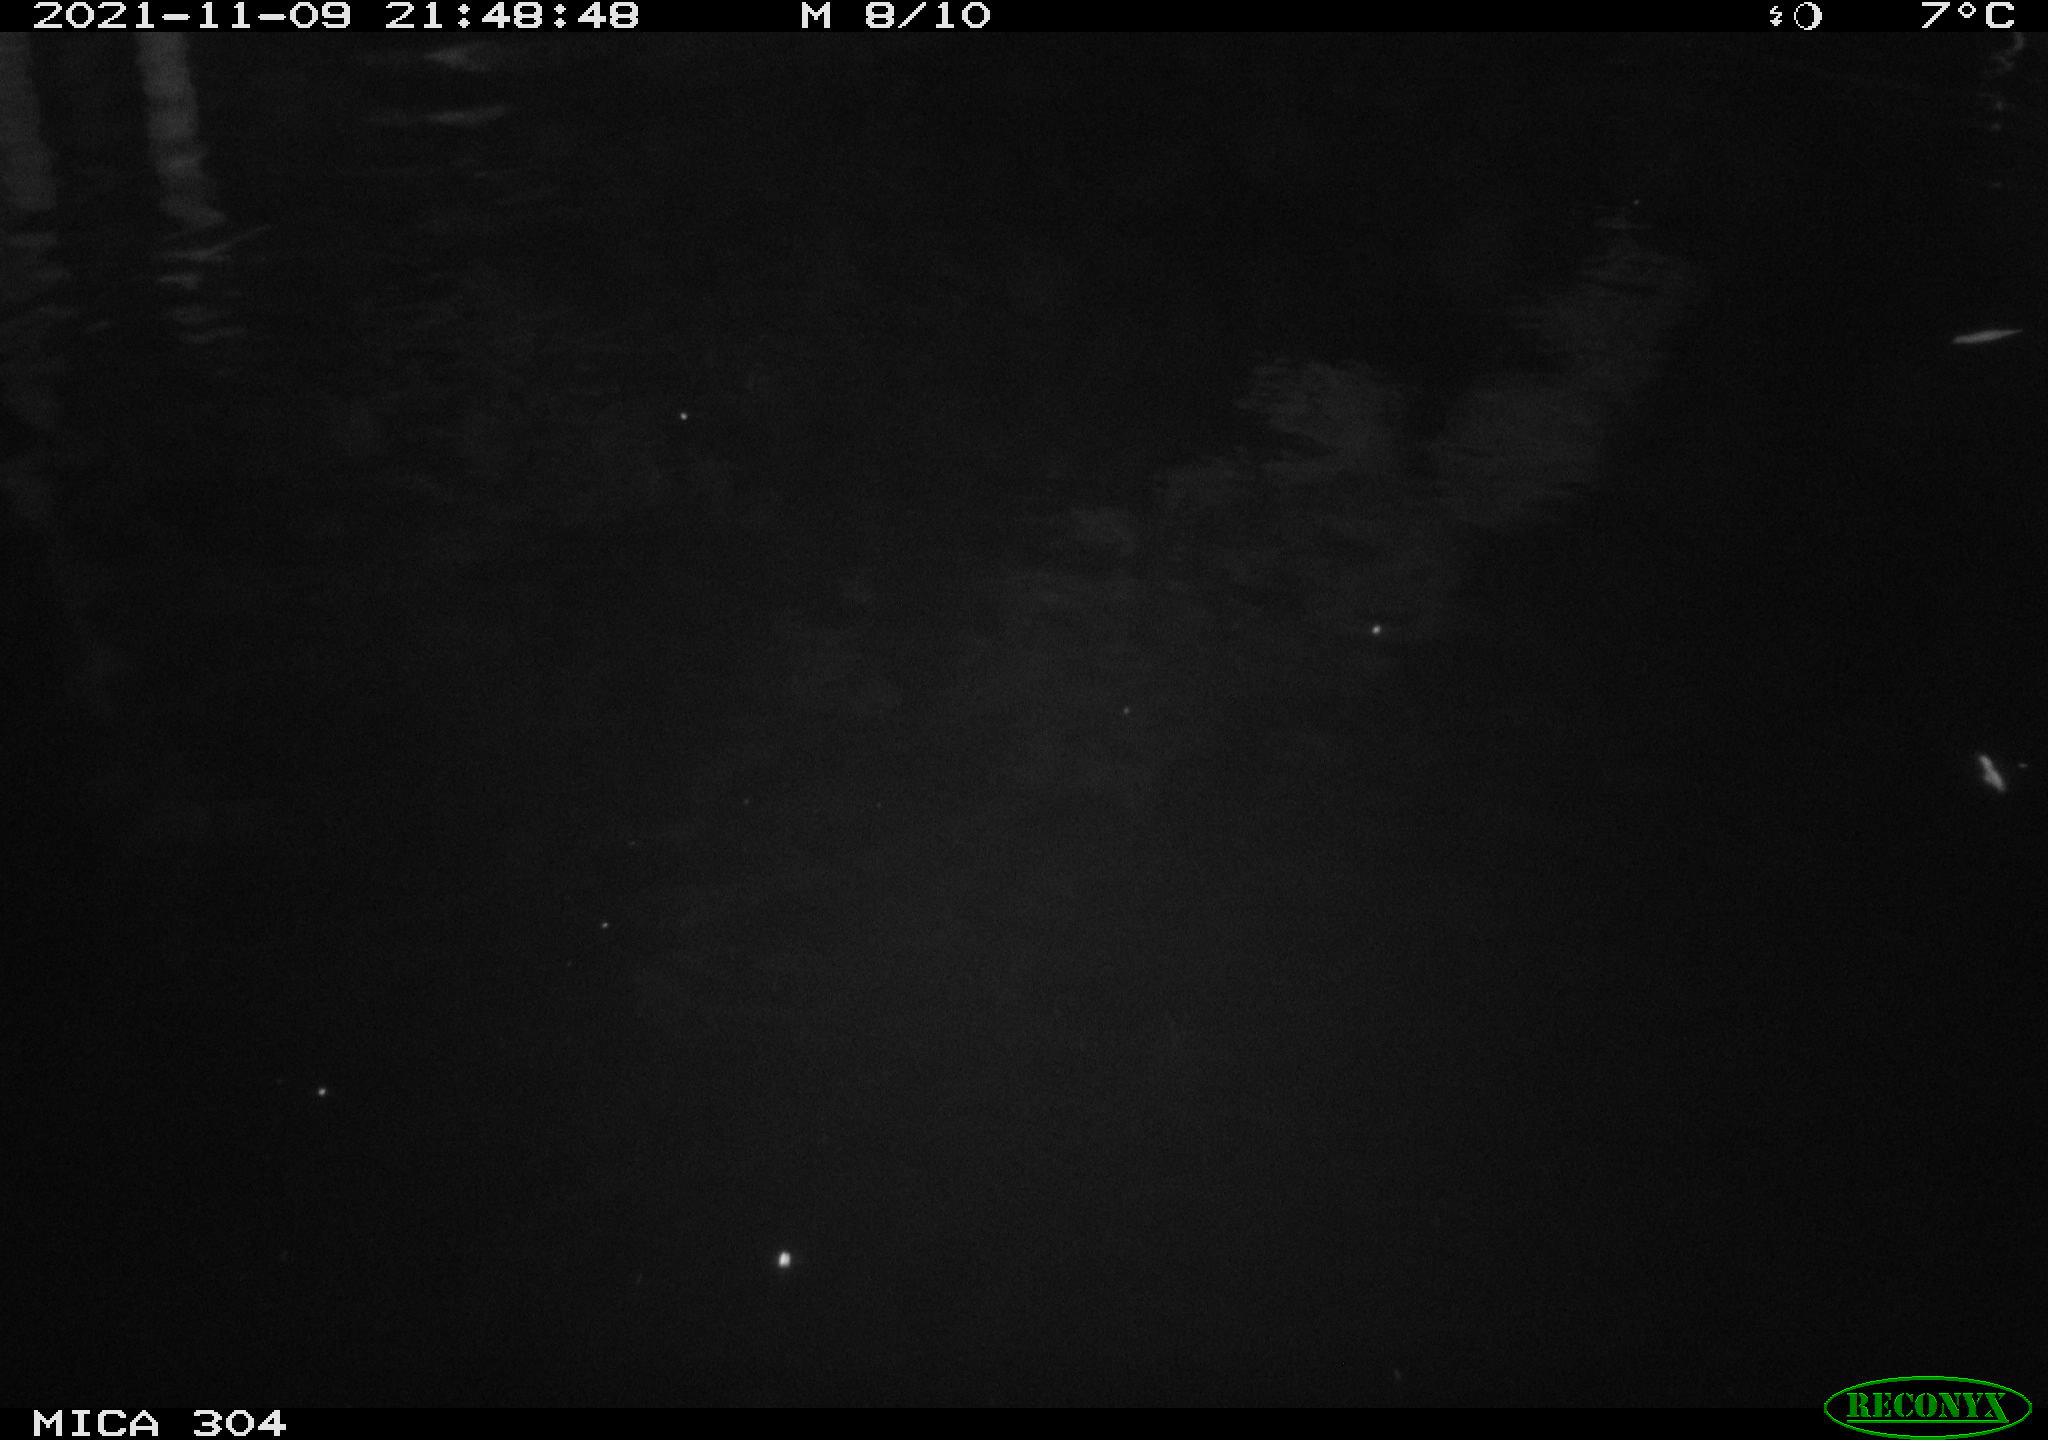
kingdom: Animalia
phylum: Chordata
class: Mammalia
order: Rodentia
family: Muridae
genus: Rattus
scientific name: Rattus norvegicus
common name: Brown rat
